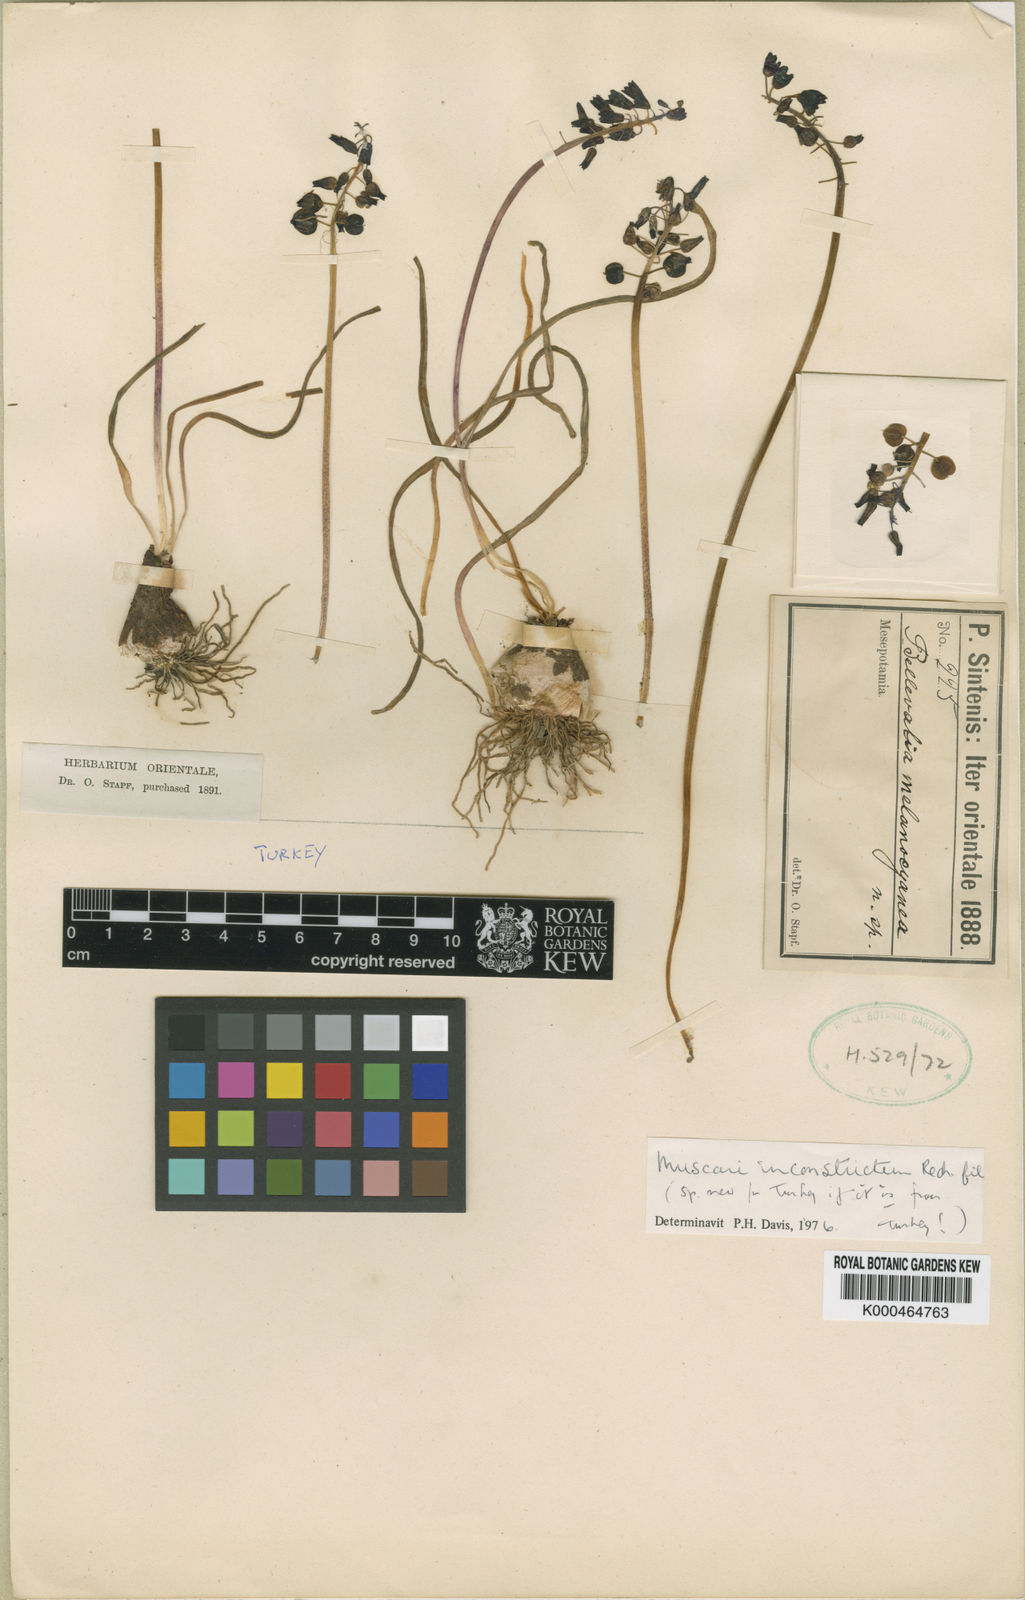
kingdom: Plantae
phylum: Tracheophyta
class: Liliopsida
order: Asparagales
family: Asparagaceae
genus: Muscari
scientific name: Muscari inconstrictum
